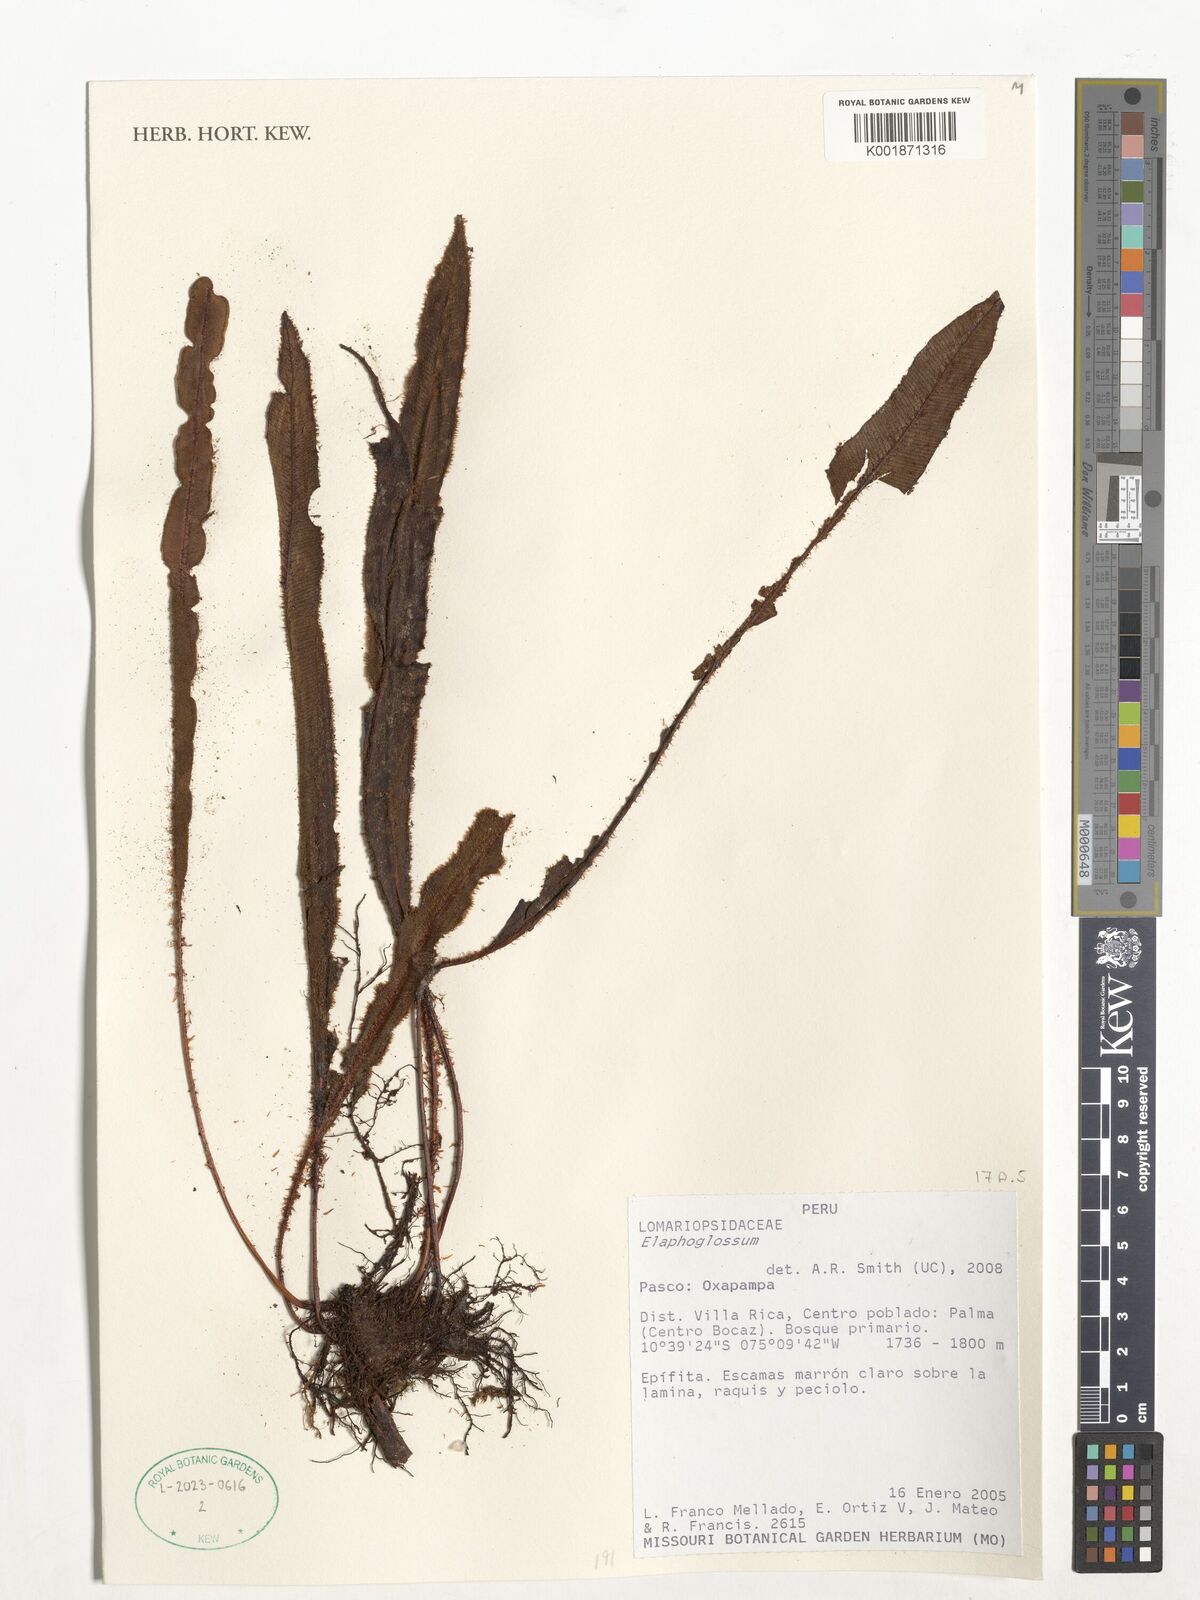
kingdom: Plantae
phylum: Tracheophyta
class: Polypodiopsida
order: Polypodiales
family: Dryopteridaceae
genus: Elaphoglossum
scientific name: Elaphoglossum
